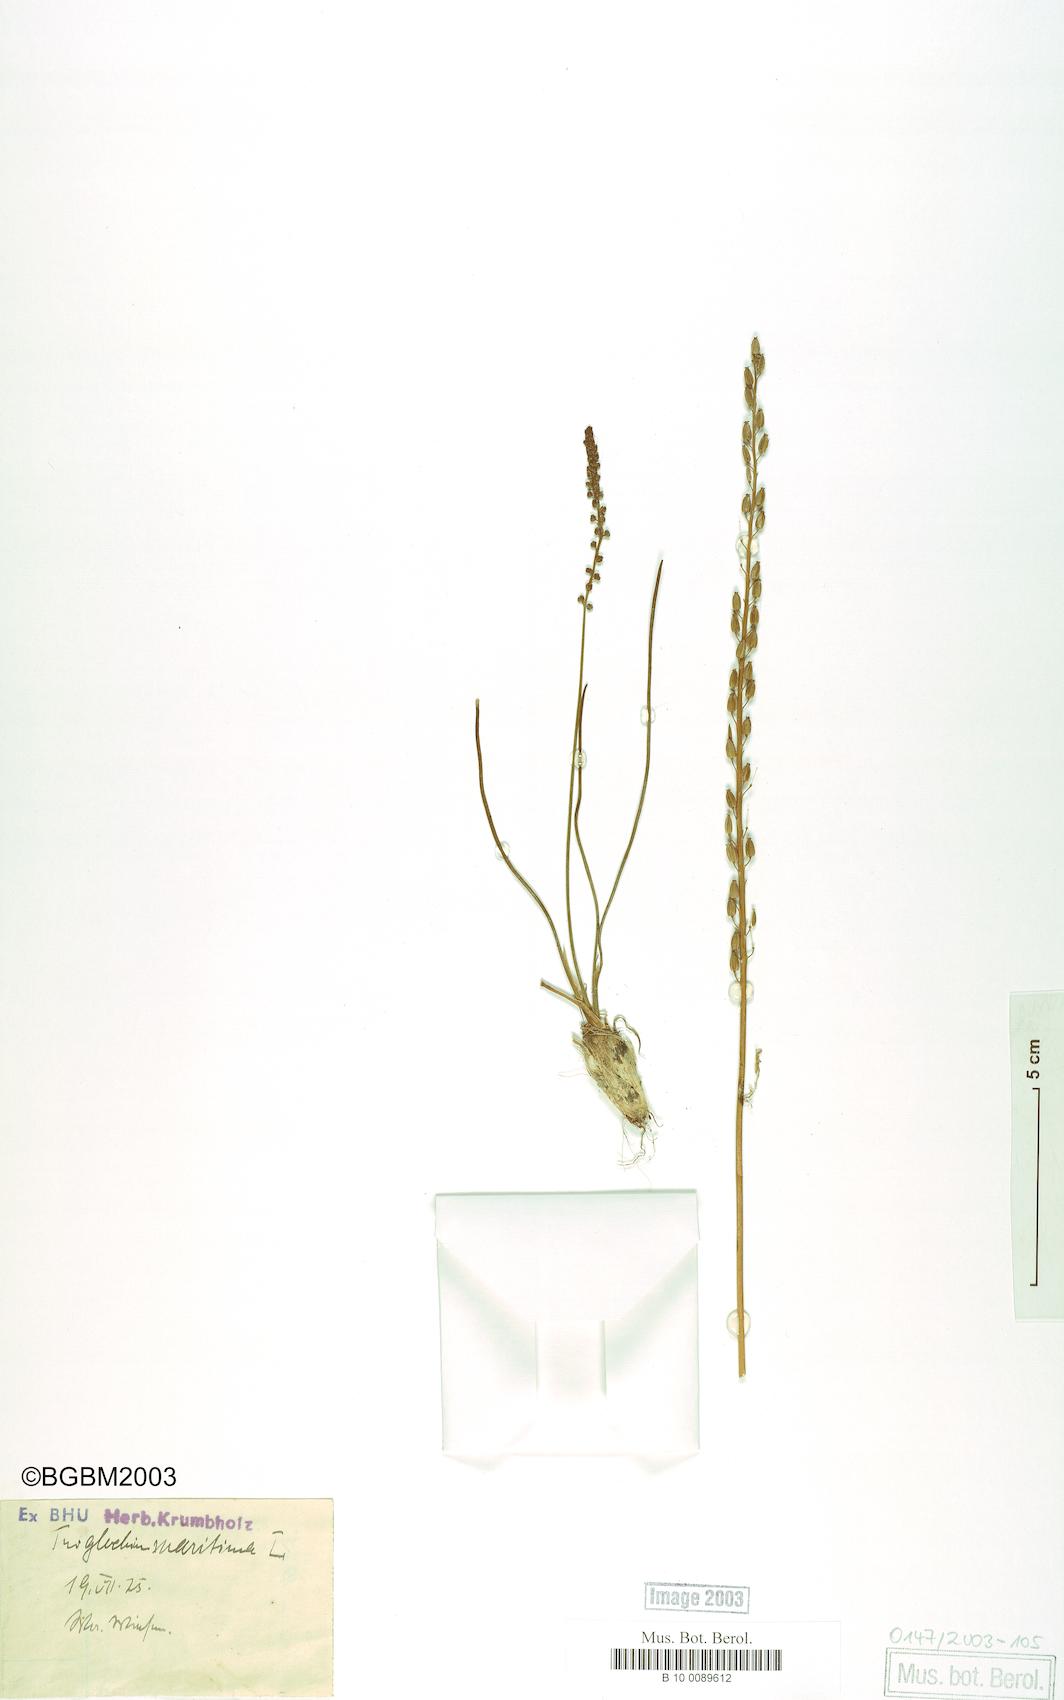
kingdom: Plantae
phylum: Tracheophyta
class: Liliopsida
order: Alismatales
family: Juncaginaceae
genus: Triglochin
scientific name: Triglochin maritima
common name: Sea arrowgrass
